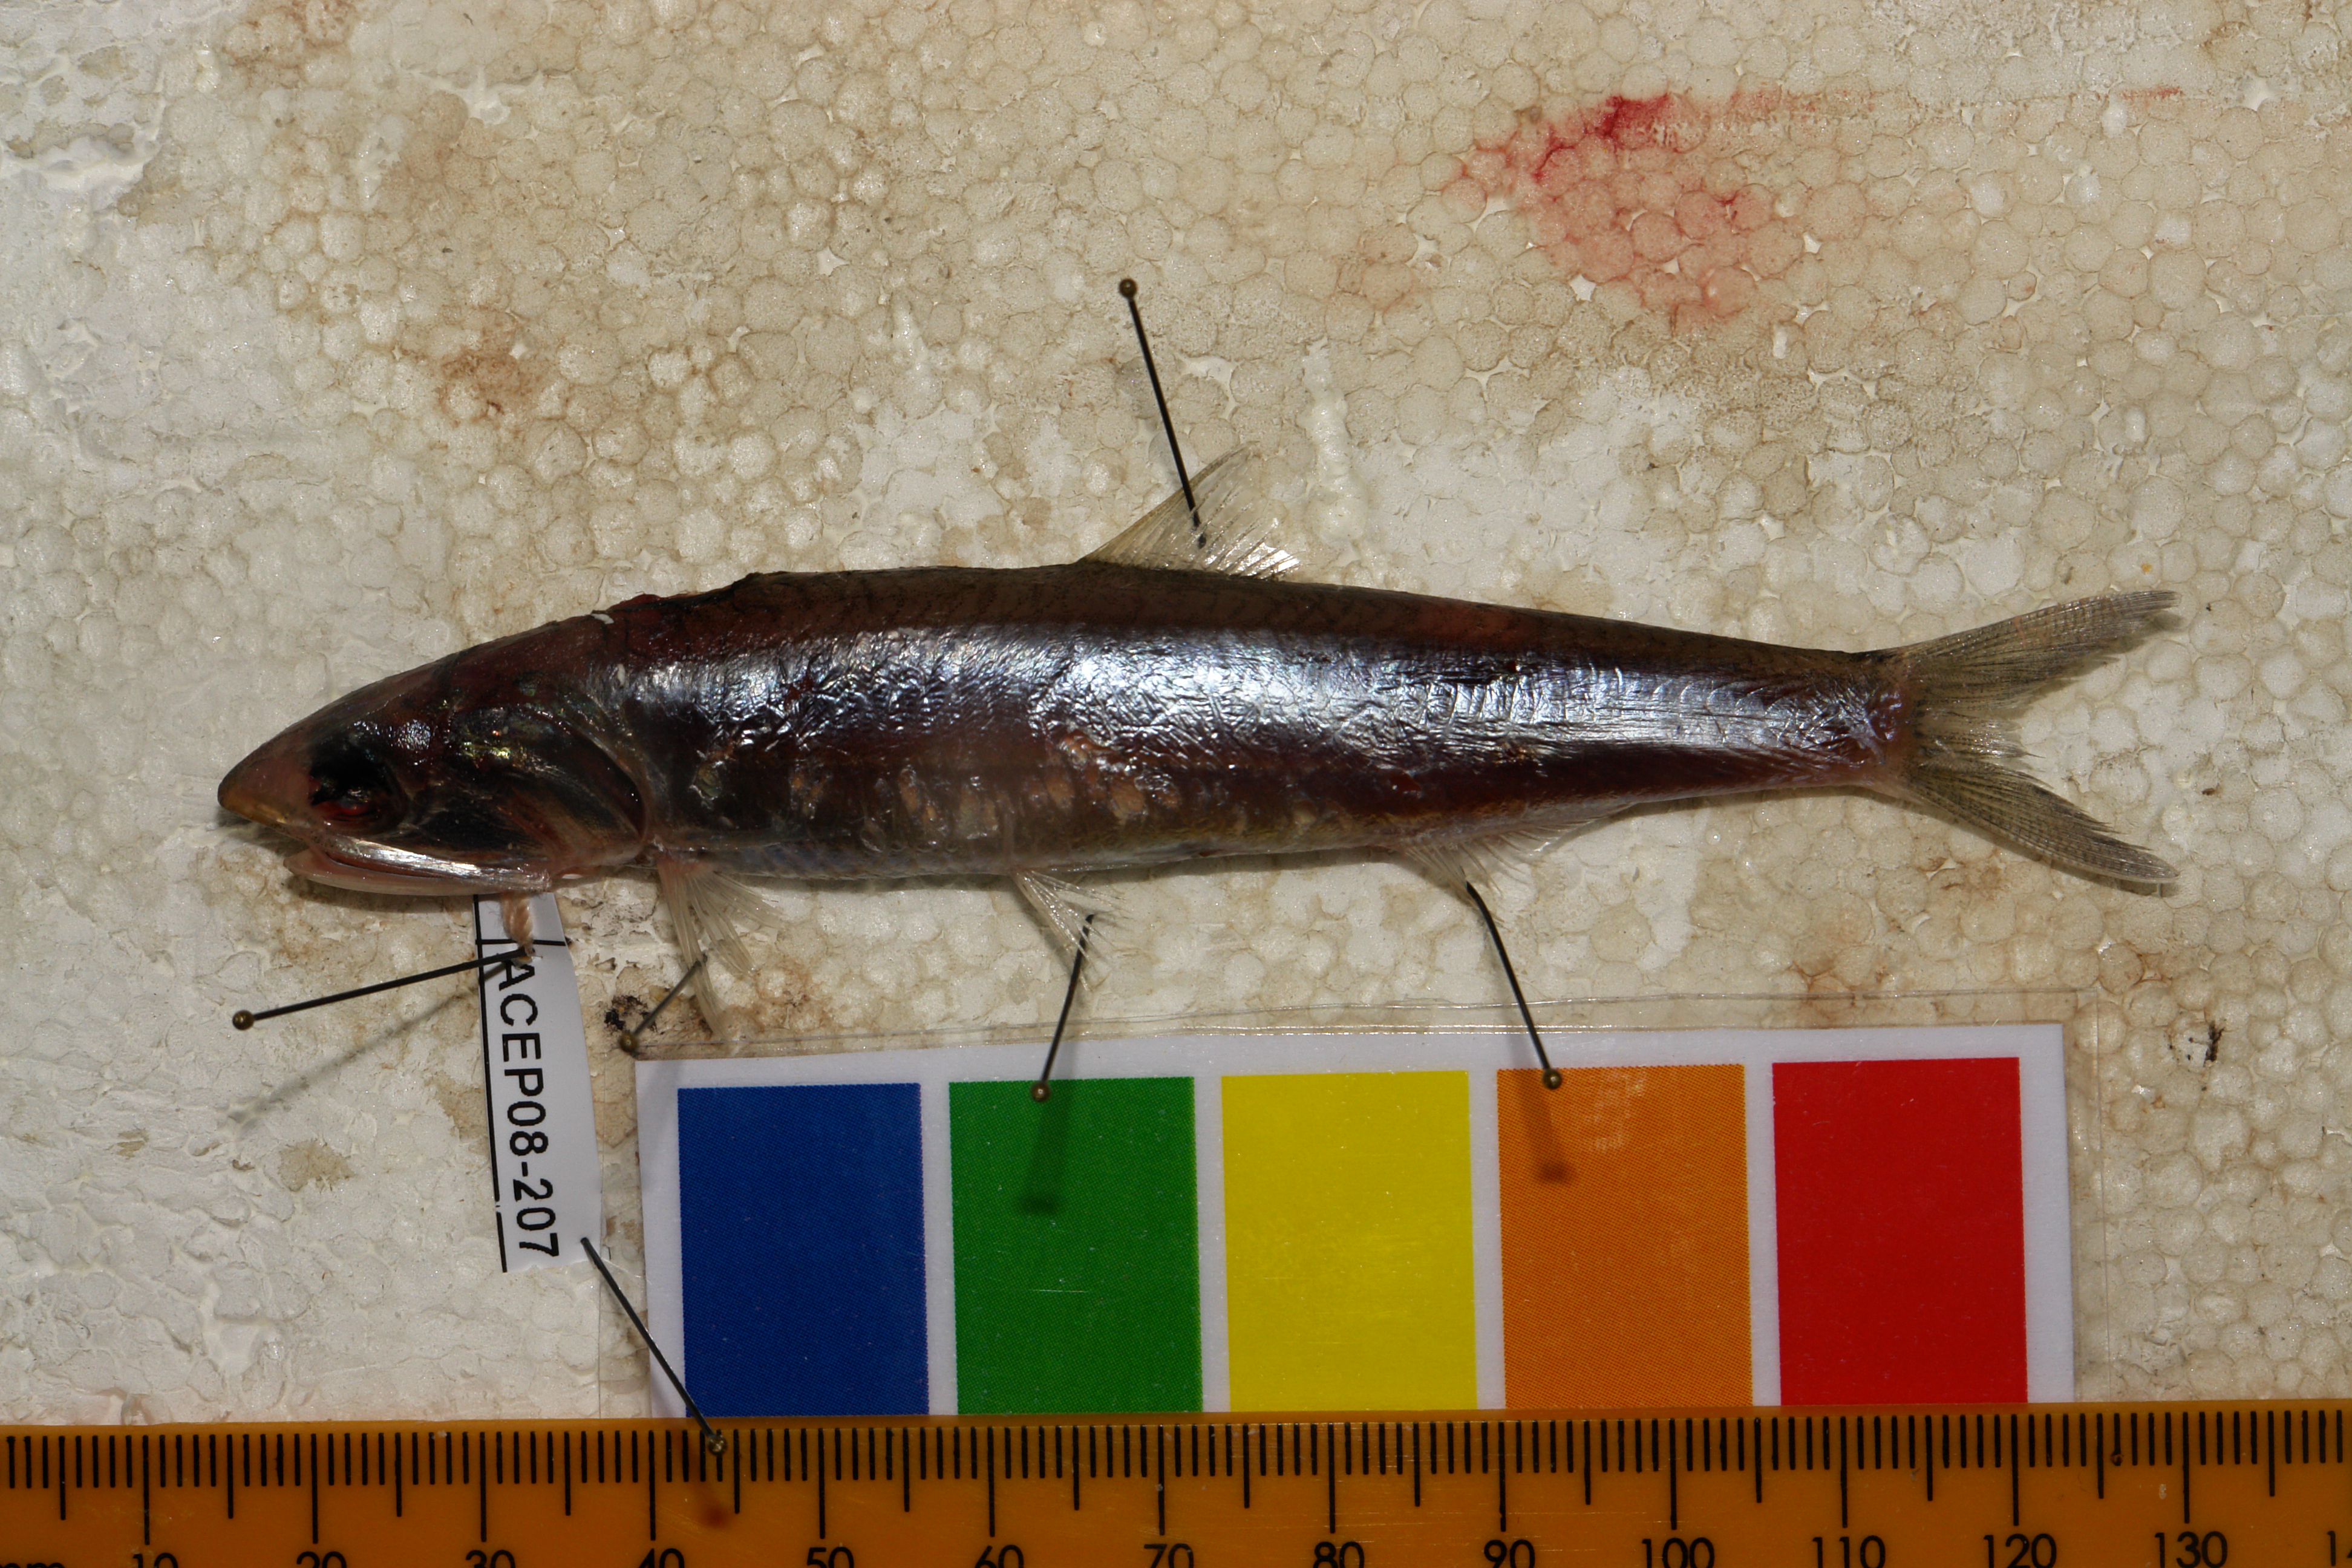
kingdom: Animalia
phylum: Chordata
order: Clupeiformes
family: Engraulidae
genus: Engraulis
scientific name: Engraulis capensis
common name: Southern african anchovy
